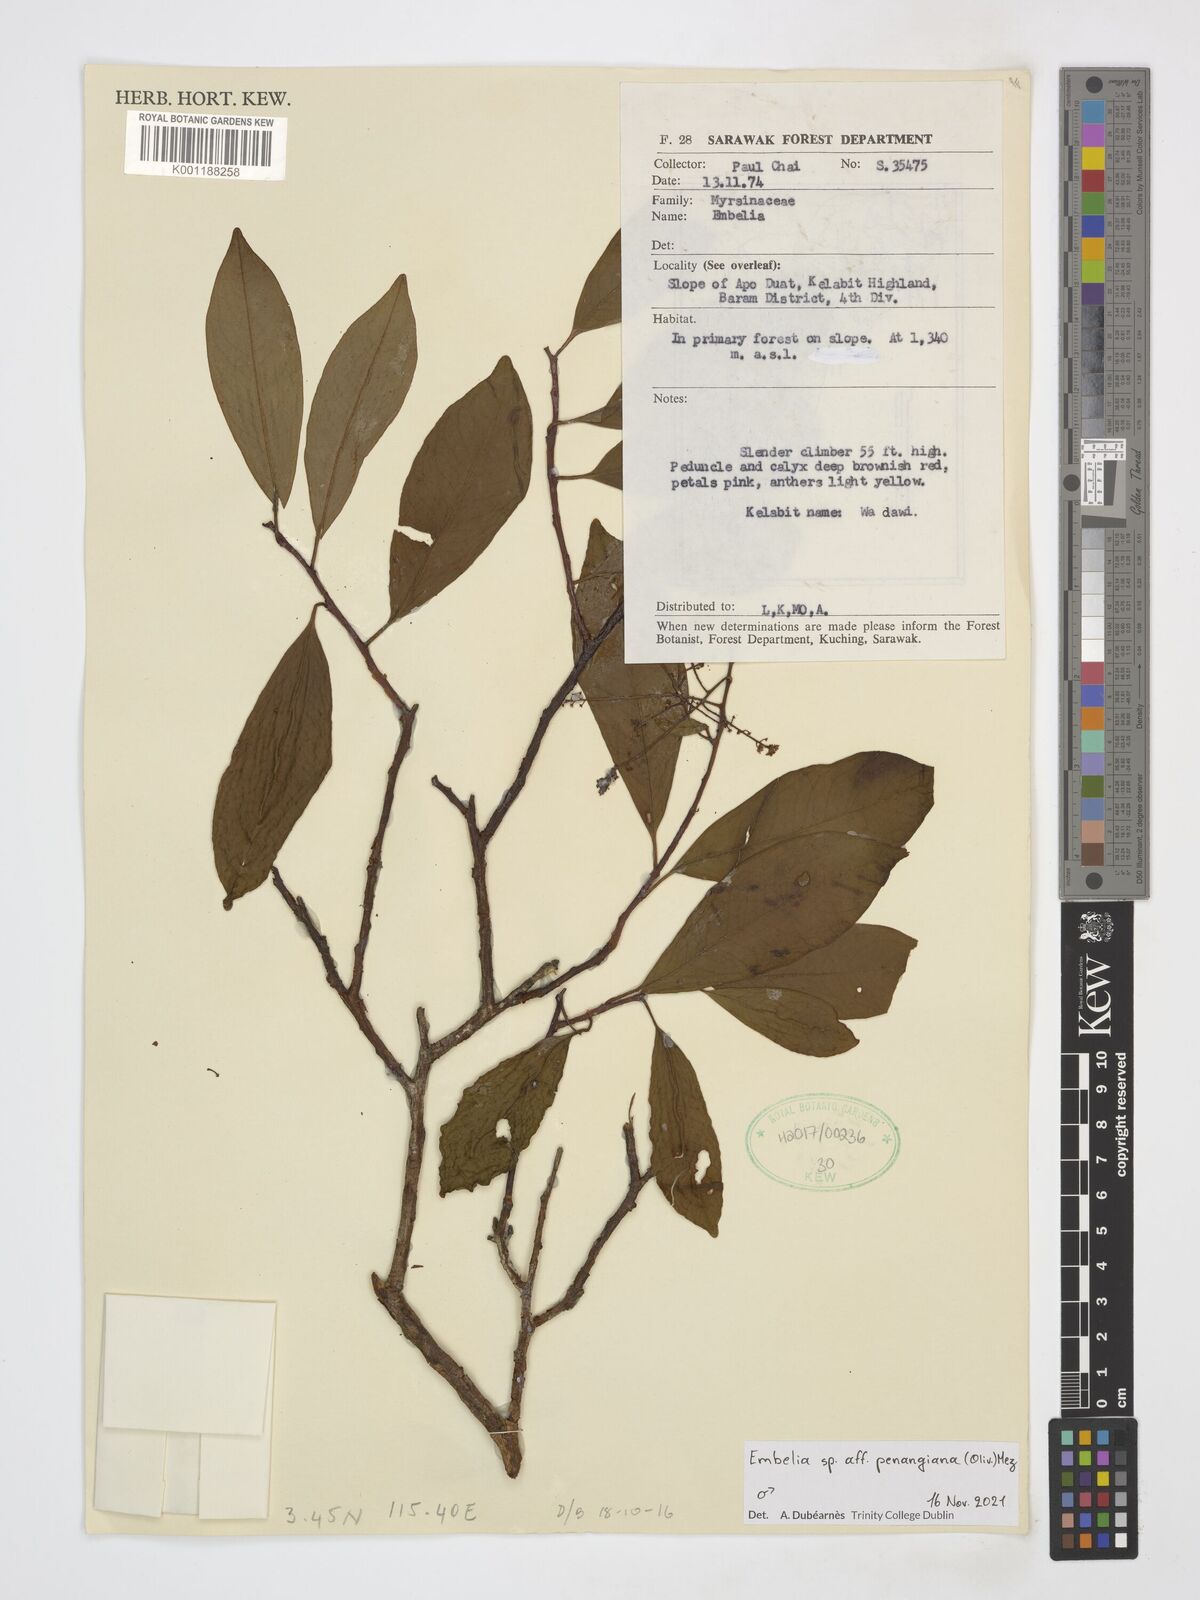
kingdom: Plantae
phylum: Tracheophyta
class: Magnoliopsida
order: Ericales
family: Primulaceae
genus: Embelia
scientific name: Embelia penangiana
